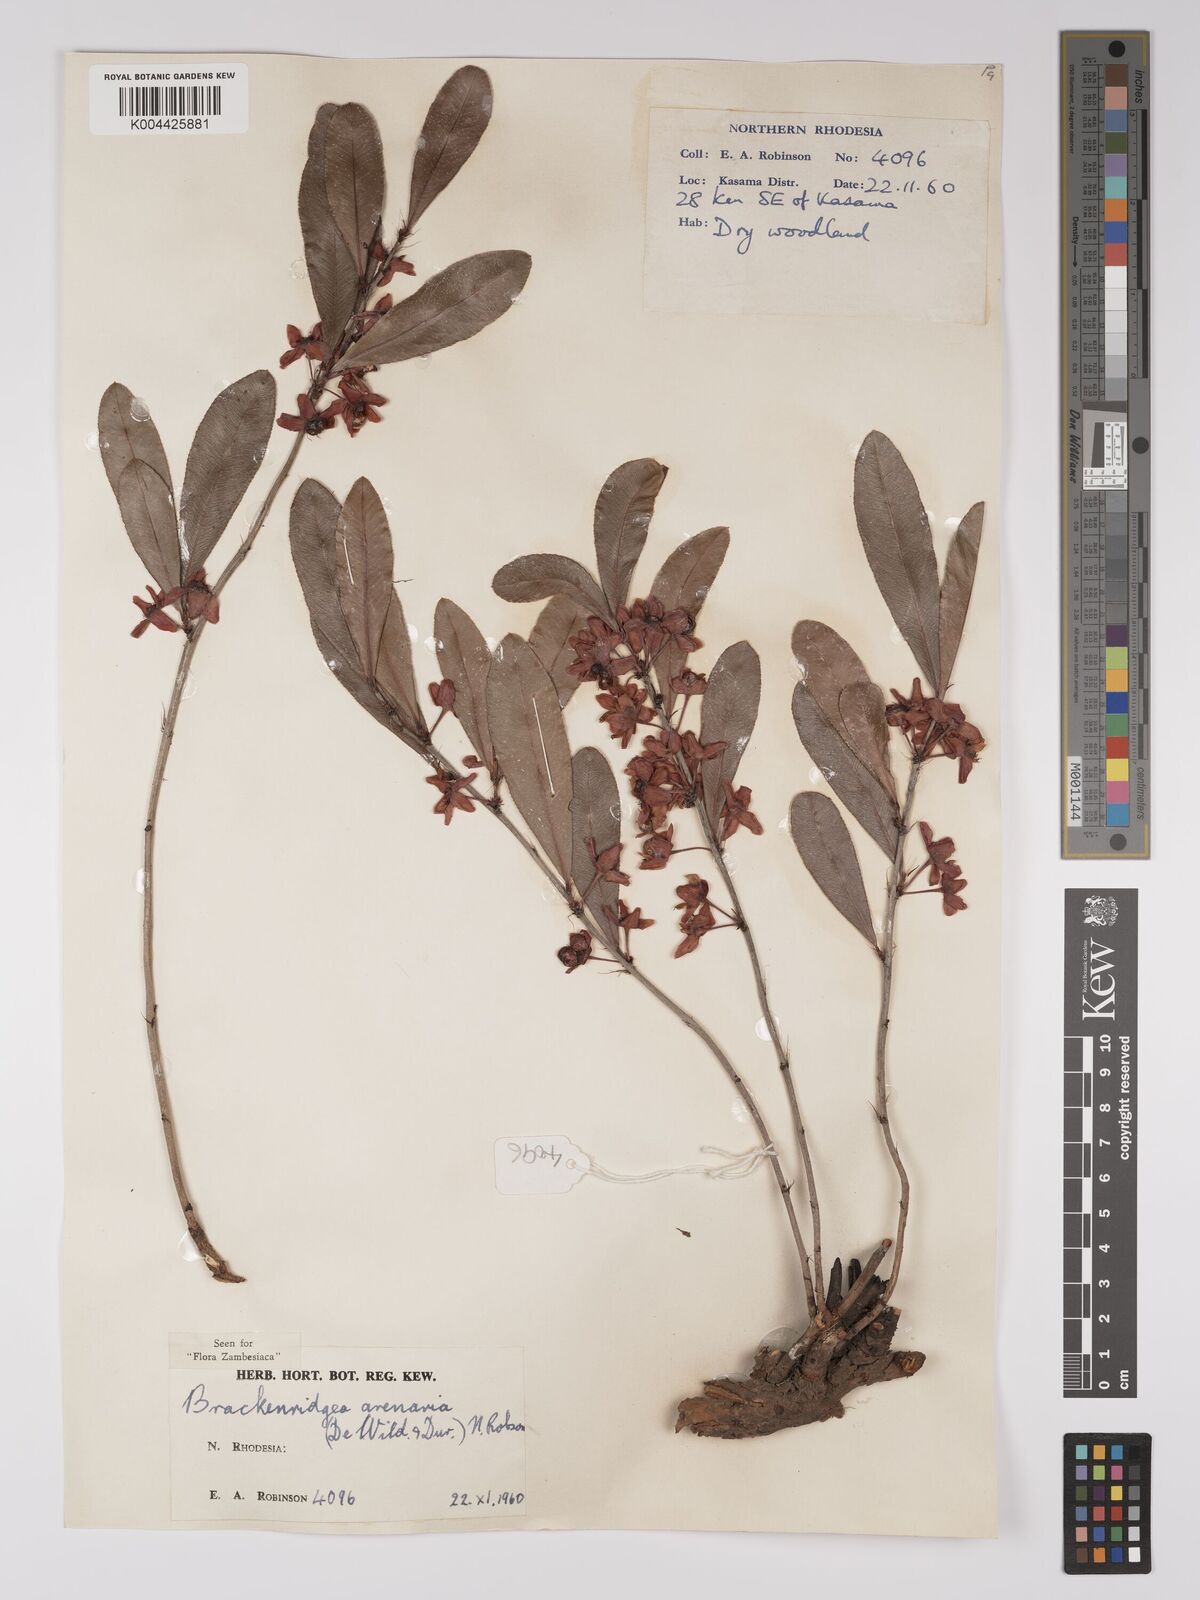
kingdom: Plantae
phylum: Tracheophyta
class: Magnoliopsida
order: Malpighiales
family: Ochnaceae
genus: Ochna
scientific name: Ochna arenaria
